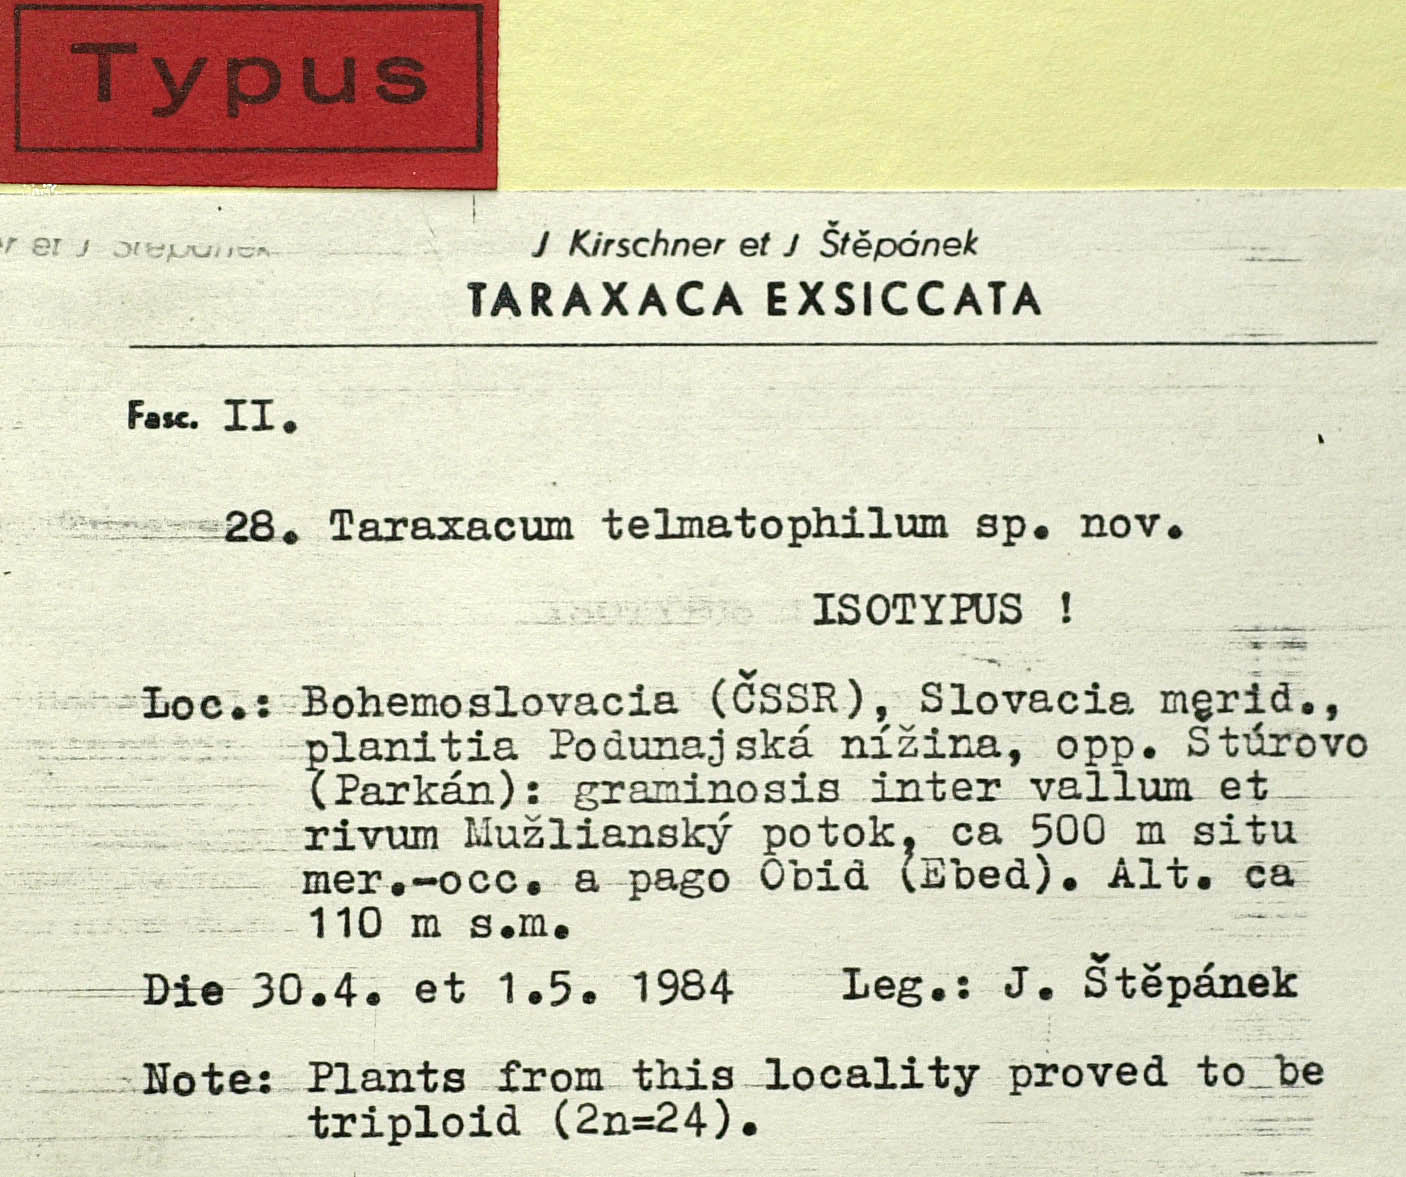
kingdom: Plantae
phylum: Tracheophyta
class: Magnoliopsida
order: Asterales
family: Asteraceae
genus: Taraxacum
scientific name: Taraxacum telmatophilum
